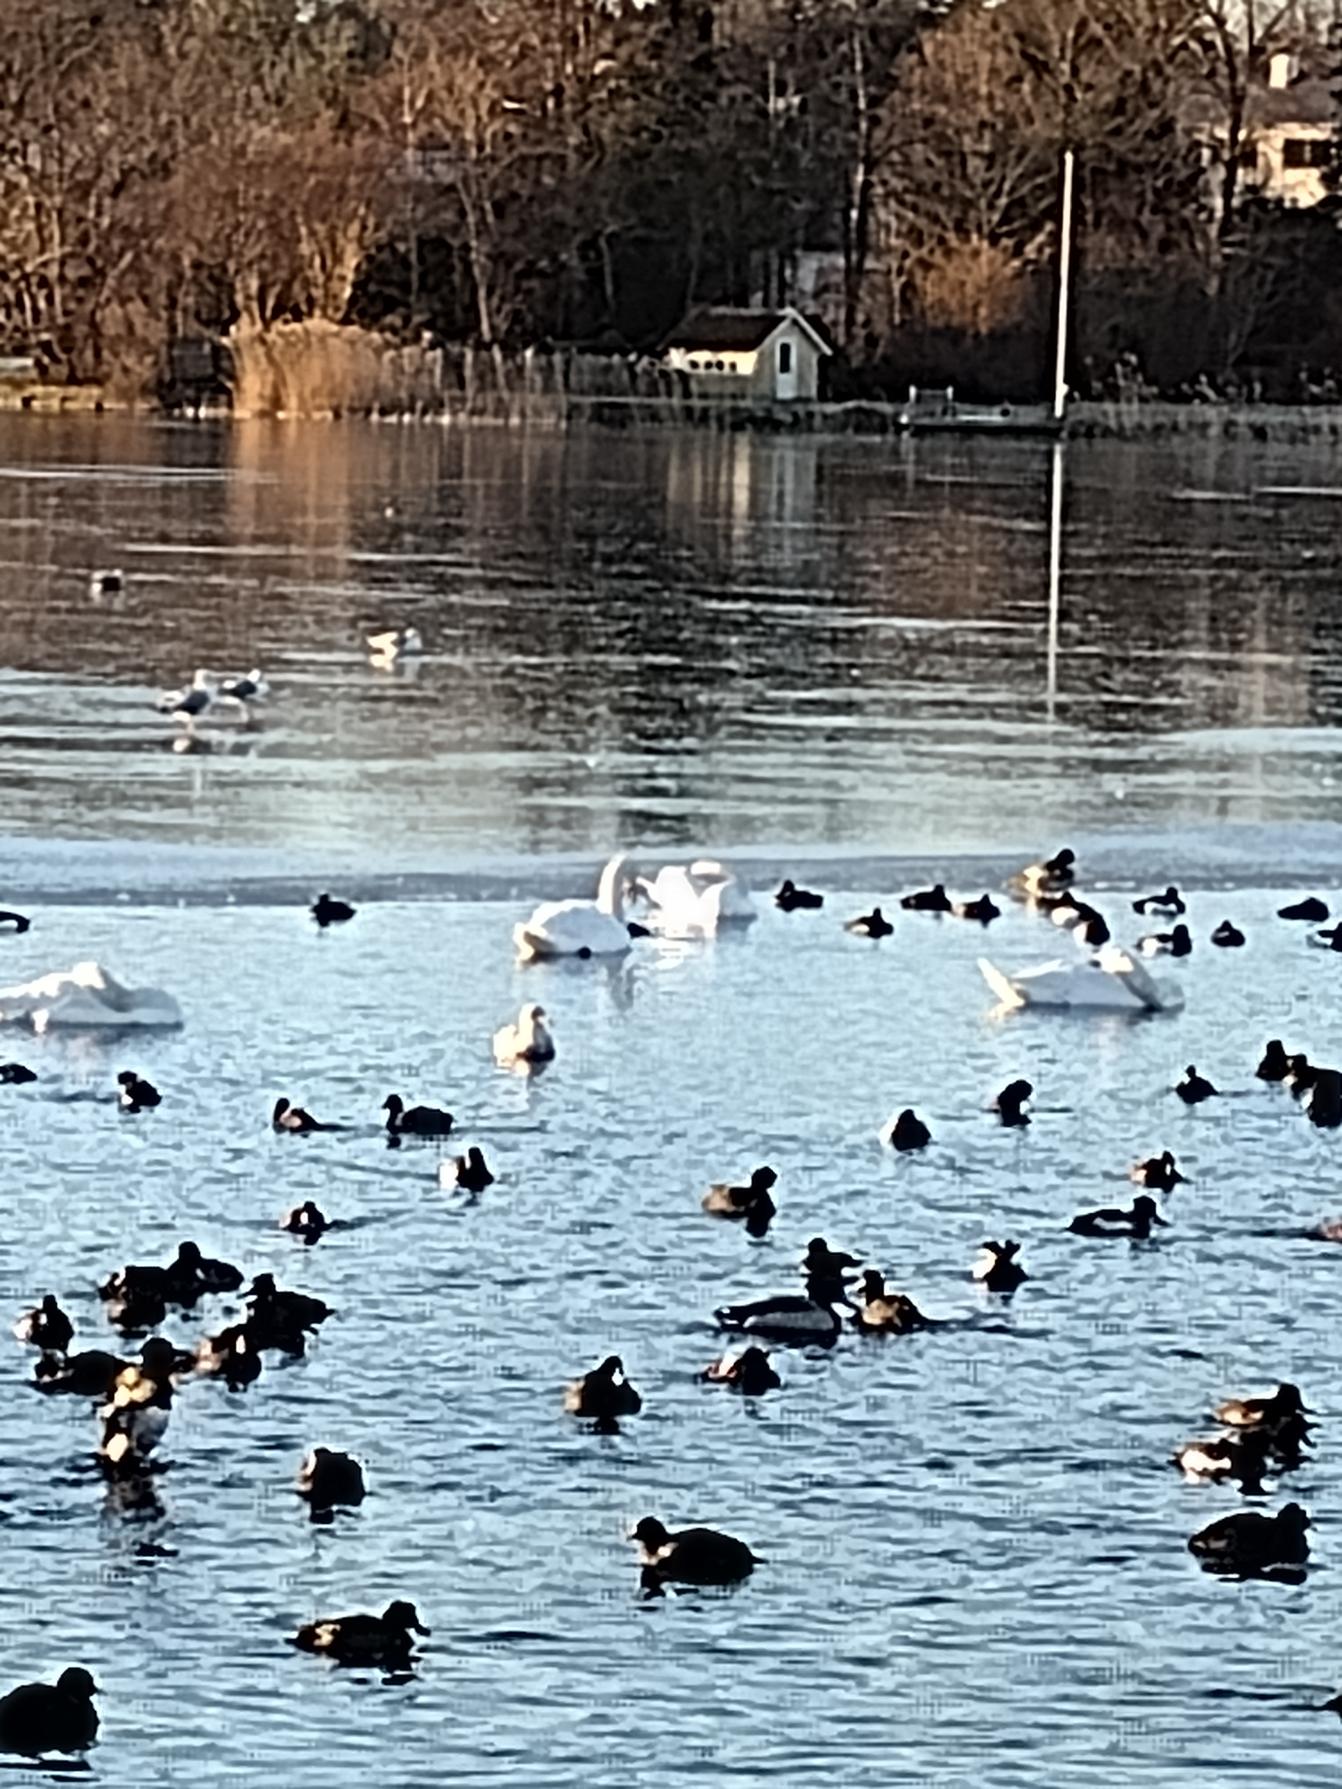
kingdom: Animalia
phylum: Chordata
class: Aves
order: Anseriformes
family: Anatidae
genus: Cygnus
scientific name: Cygnus olor
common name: Knopsvane
